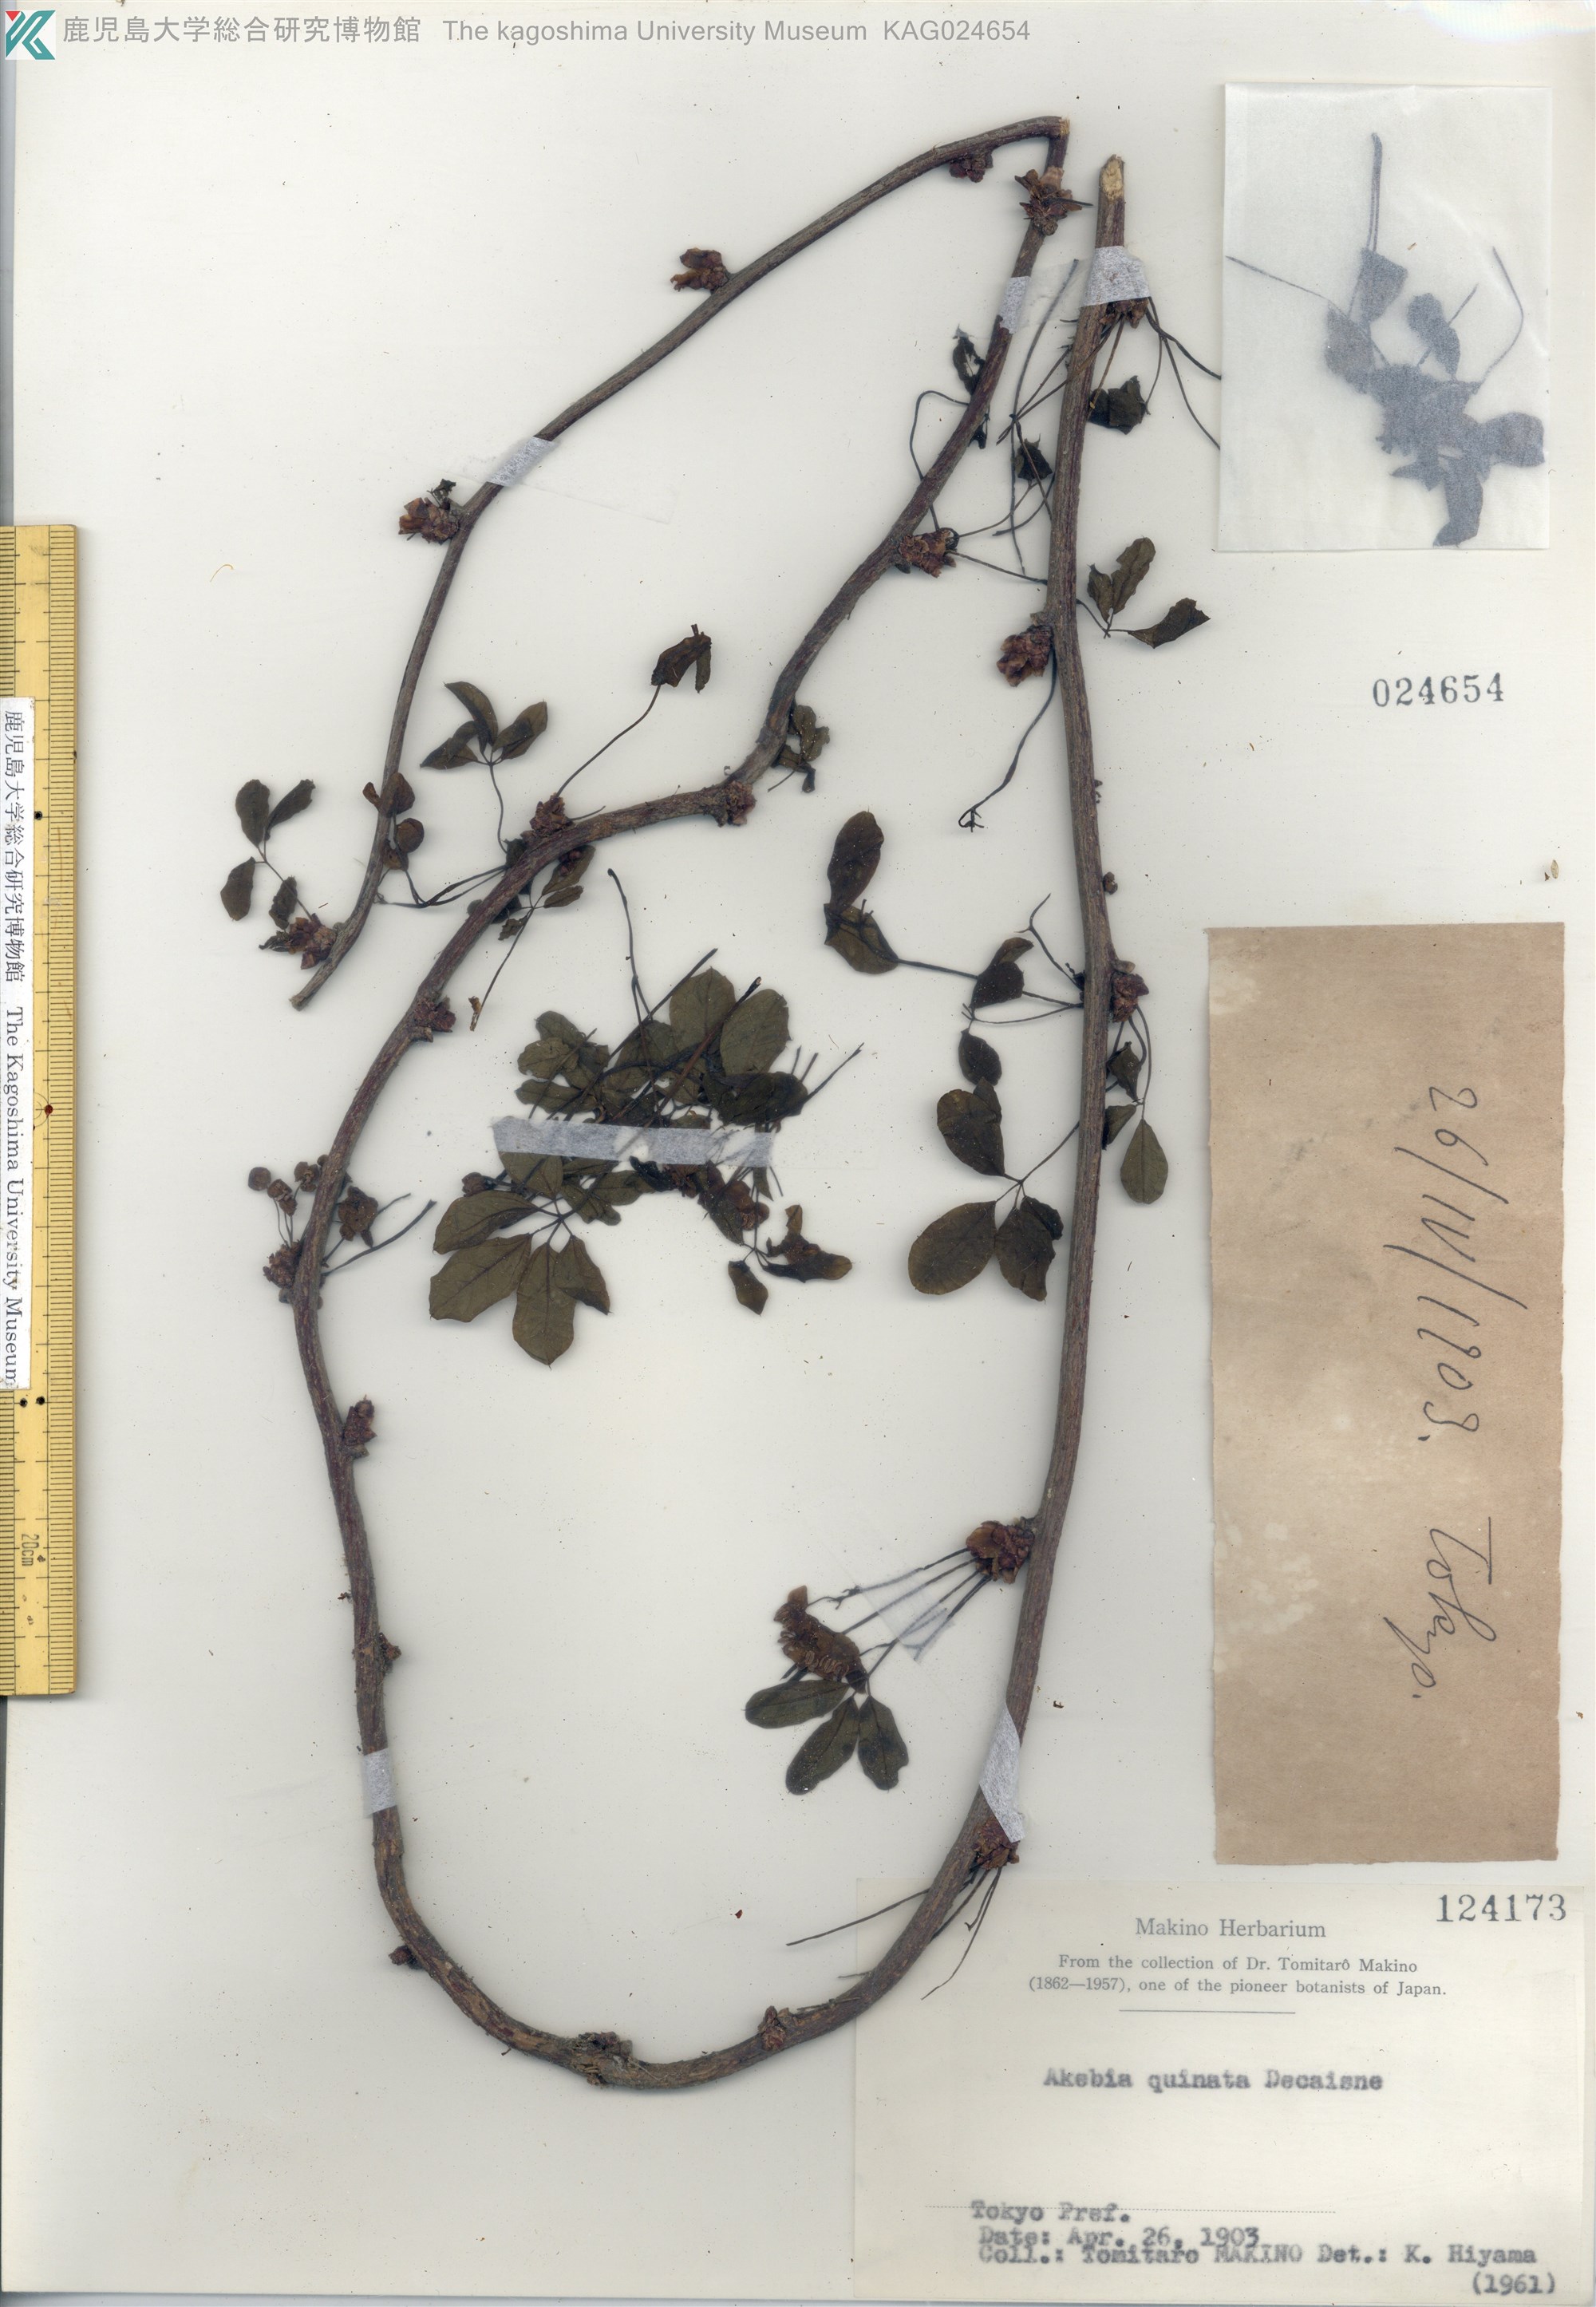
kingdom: Plantae
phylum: Tracheophyta
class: Magnoliopsida
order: Ranunculales
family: Lardizabalaceae
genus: Akebia
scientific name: Akebia quinata
